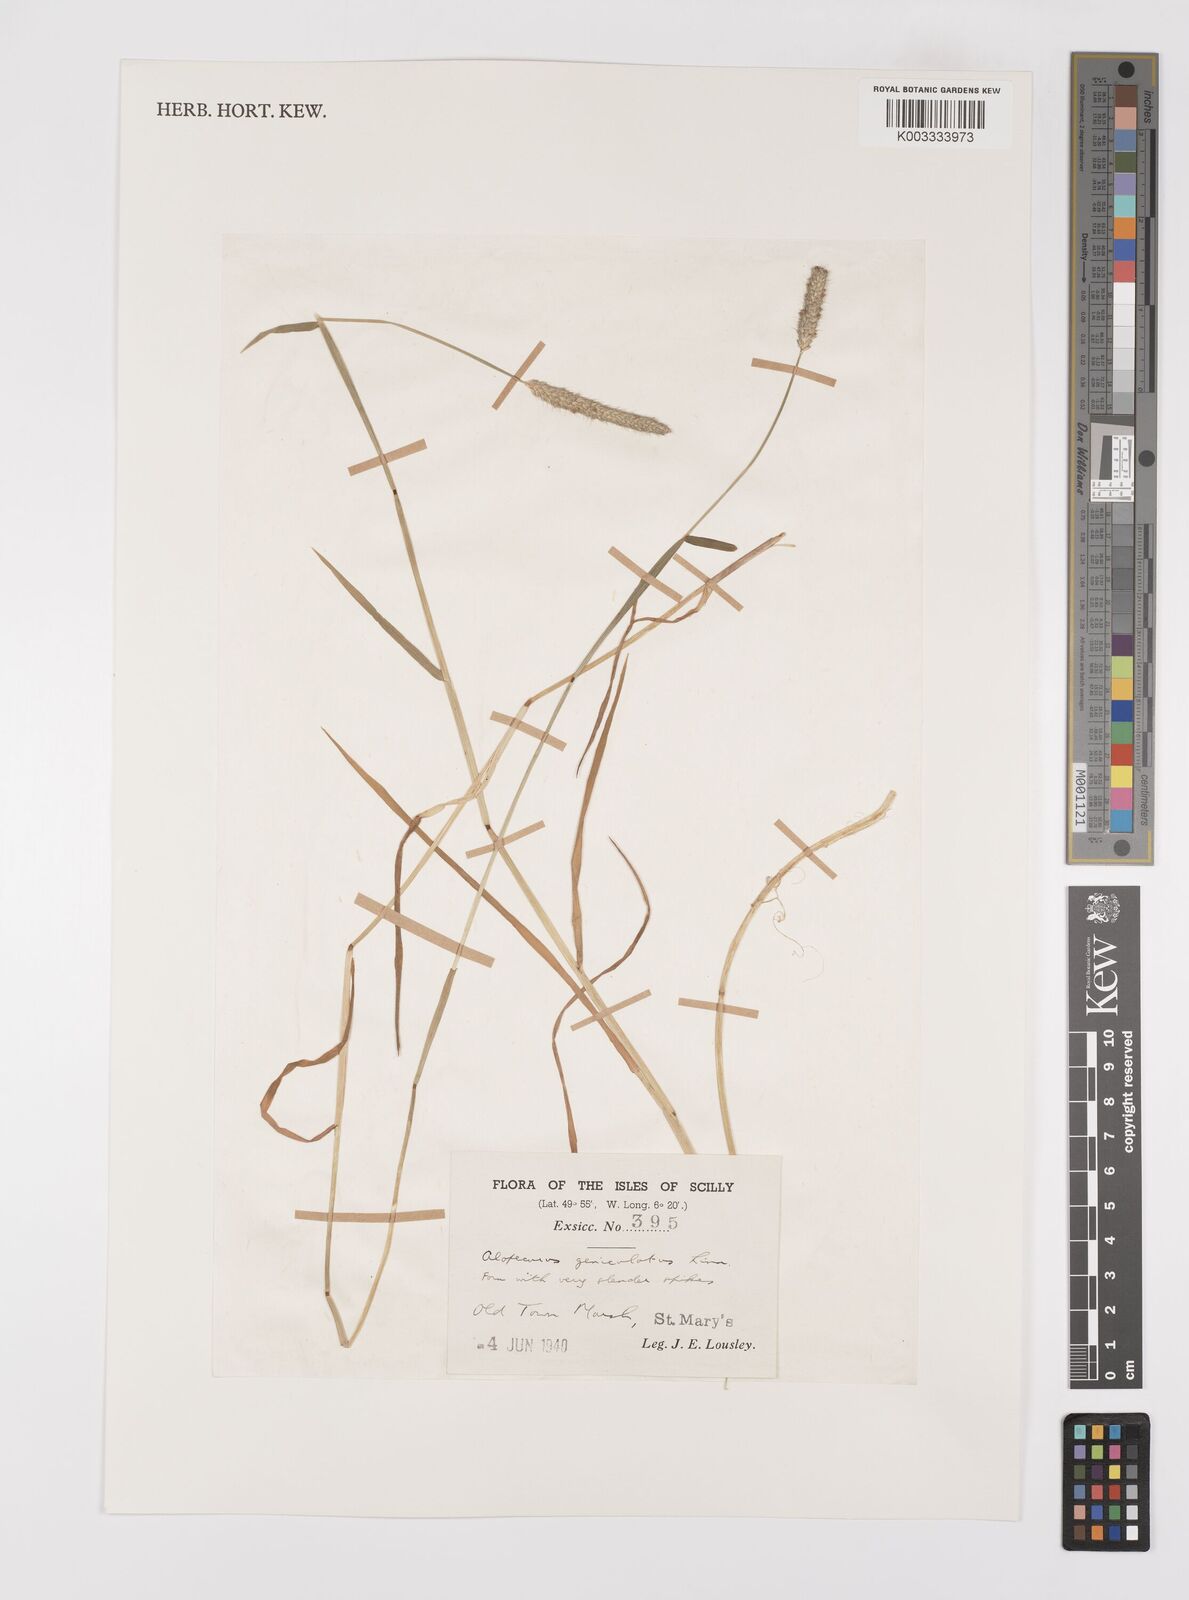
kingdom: Plantae
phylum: Tracheophyta
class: Liliopsida
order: Poales
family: Poaceae
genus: Alopecurus
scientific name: Alopecurus geniculatus
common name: Water foxtail
